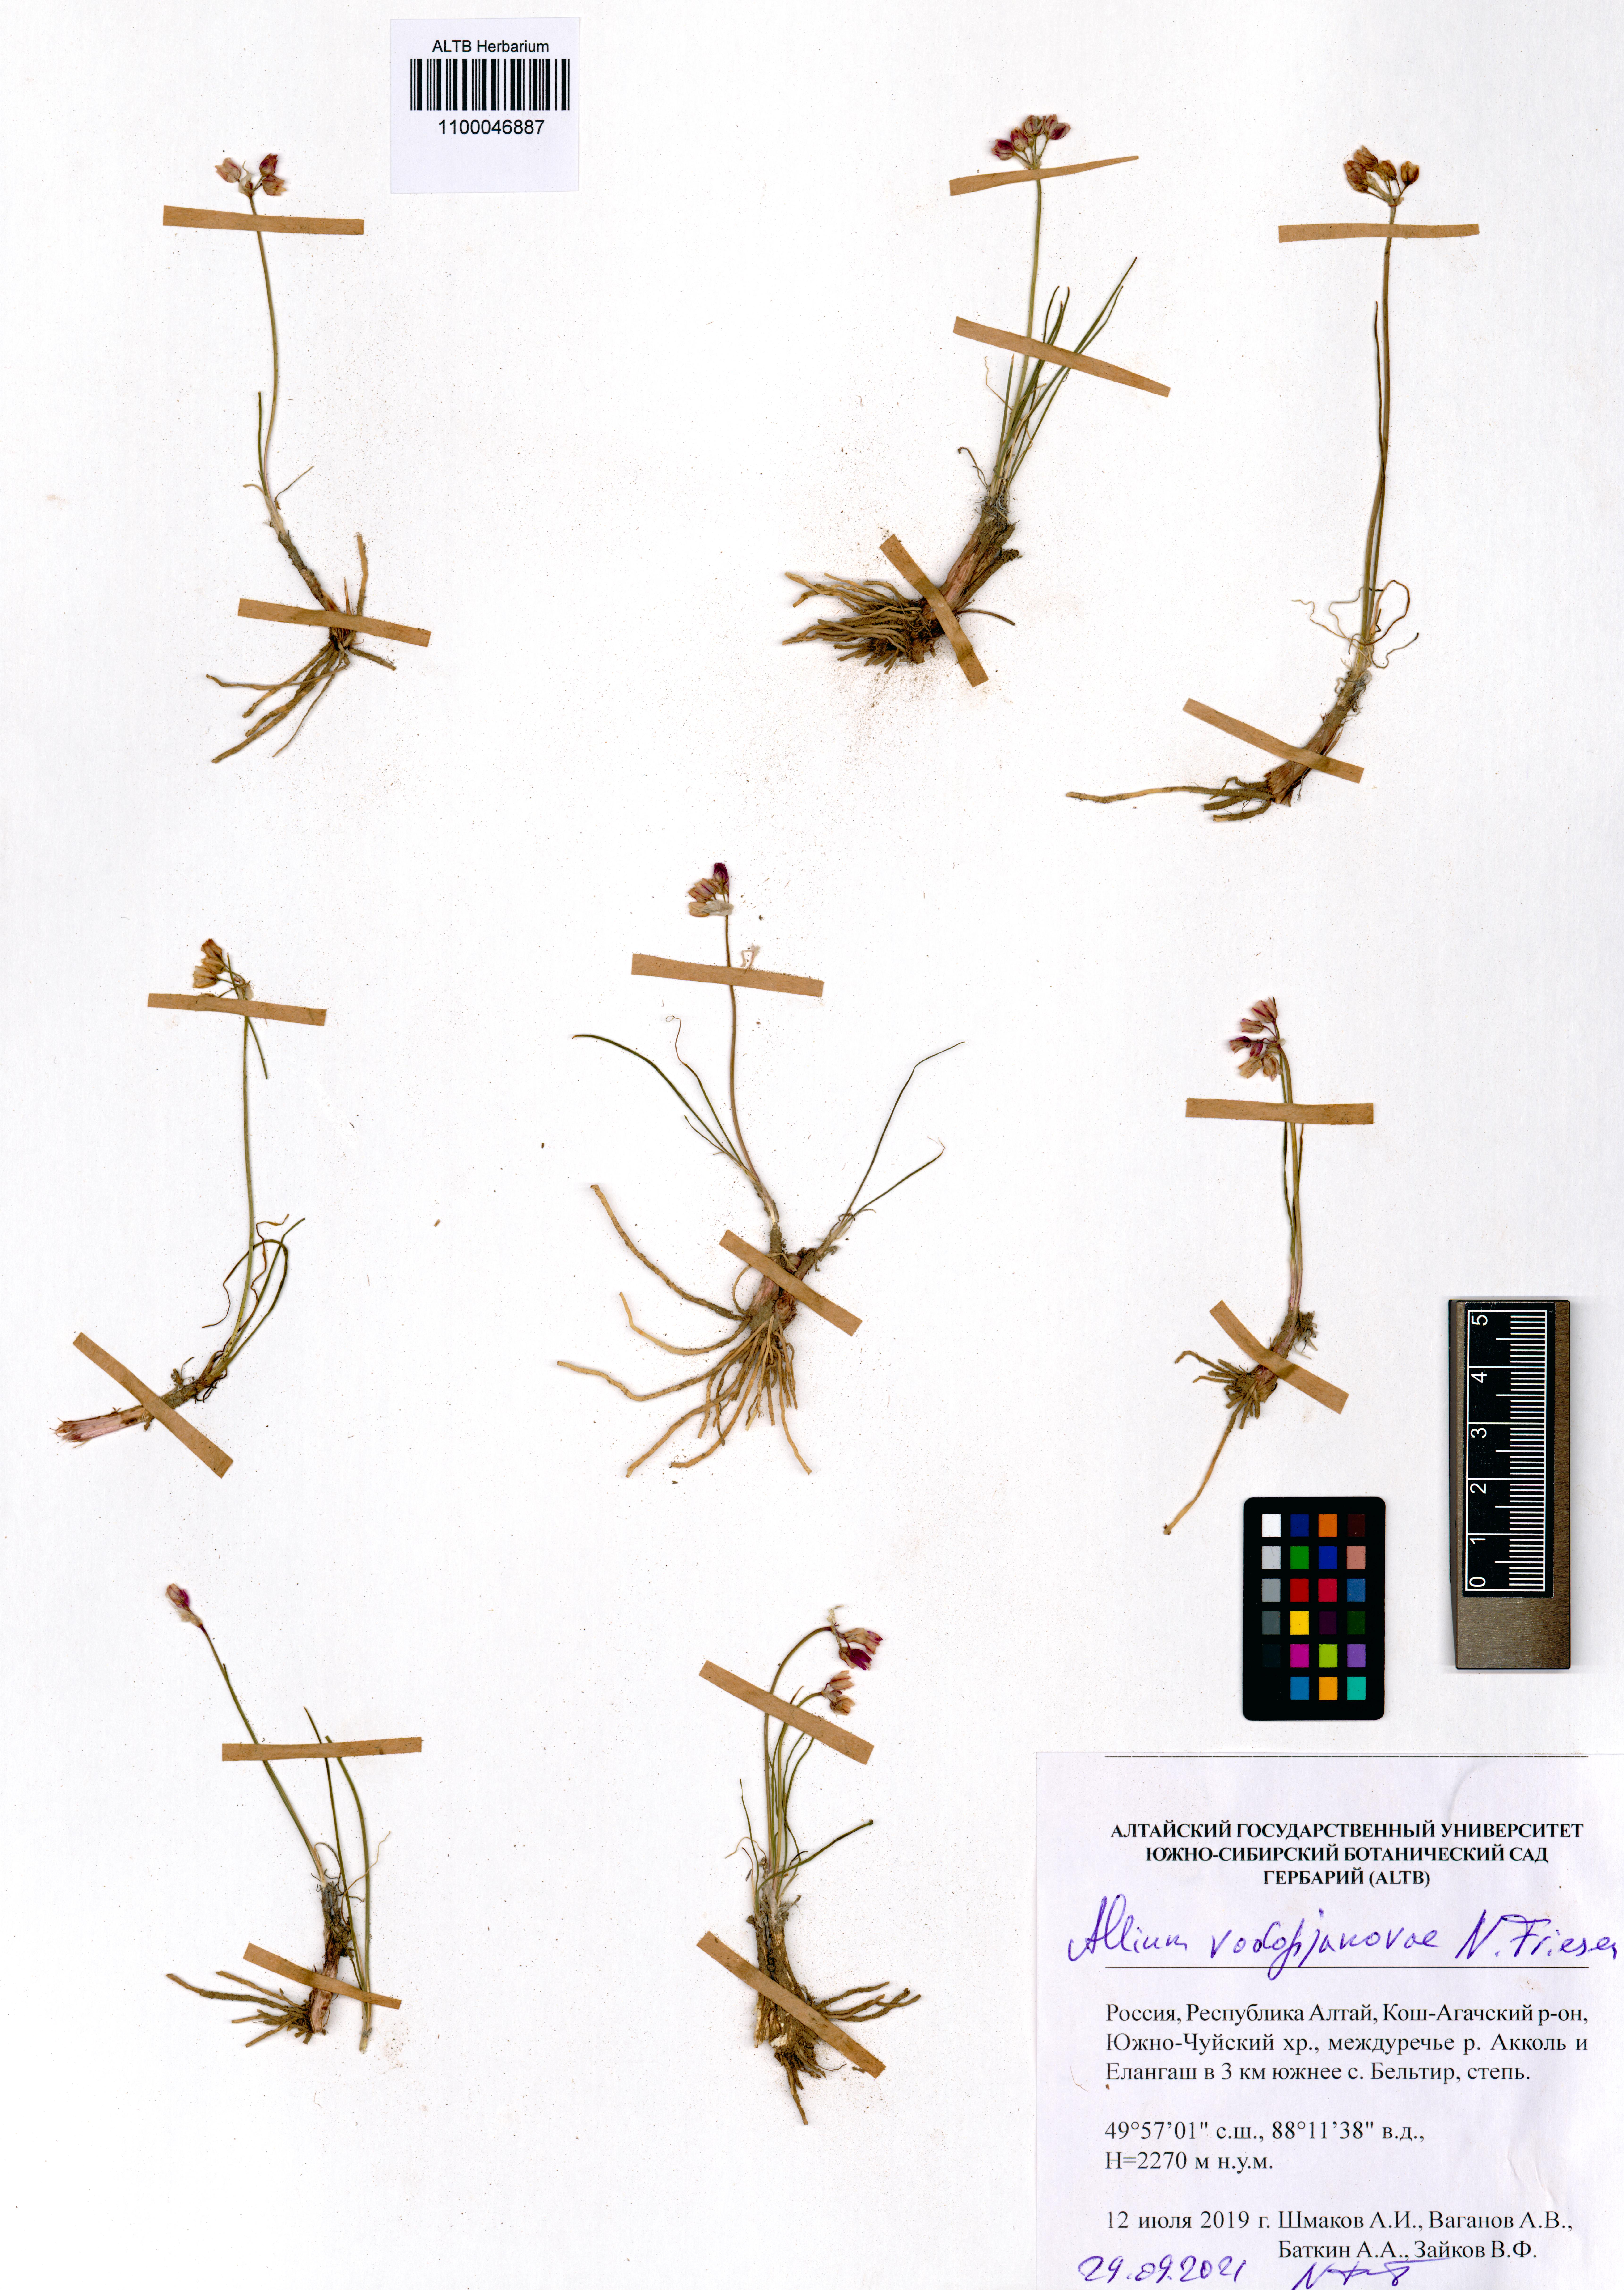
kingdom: Plantae
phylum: Tracheophyta
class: Liliopsida
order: Asparagales
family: Amaryllidaceae
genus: Allium
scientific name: Allium vodopjanovae
